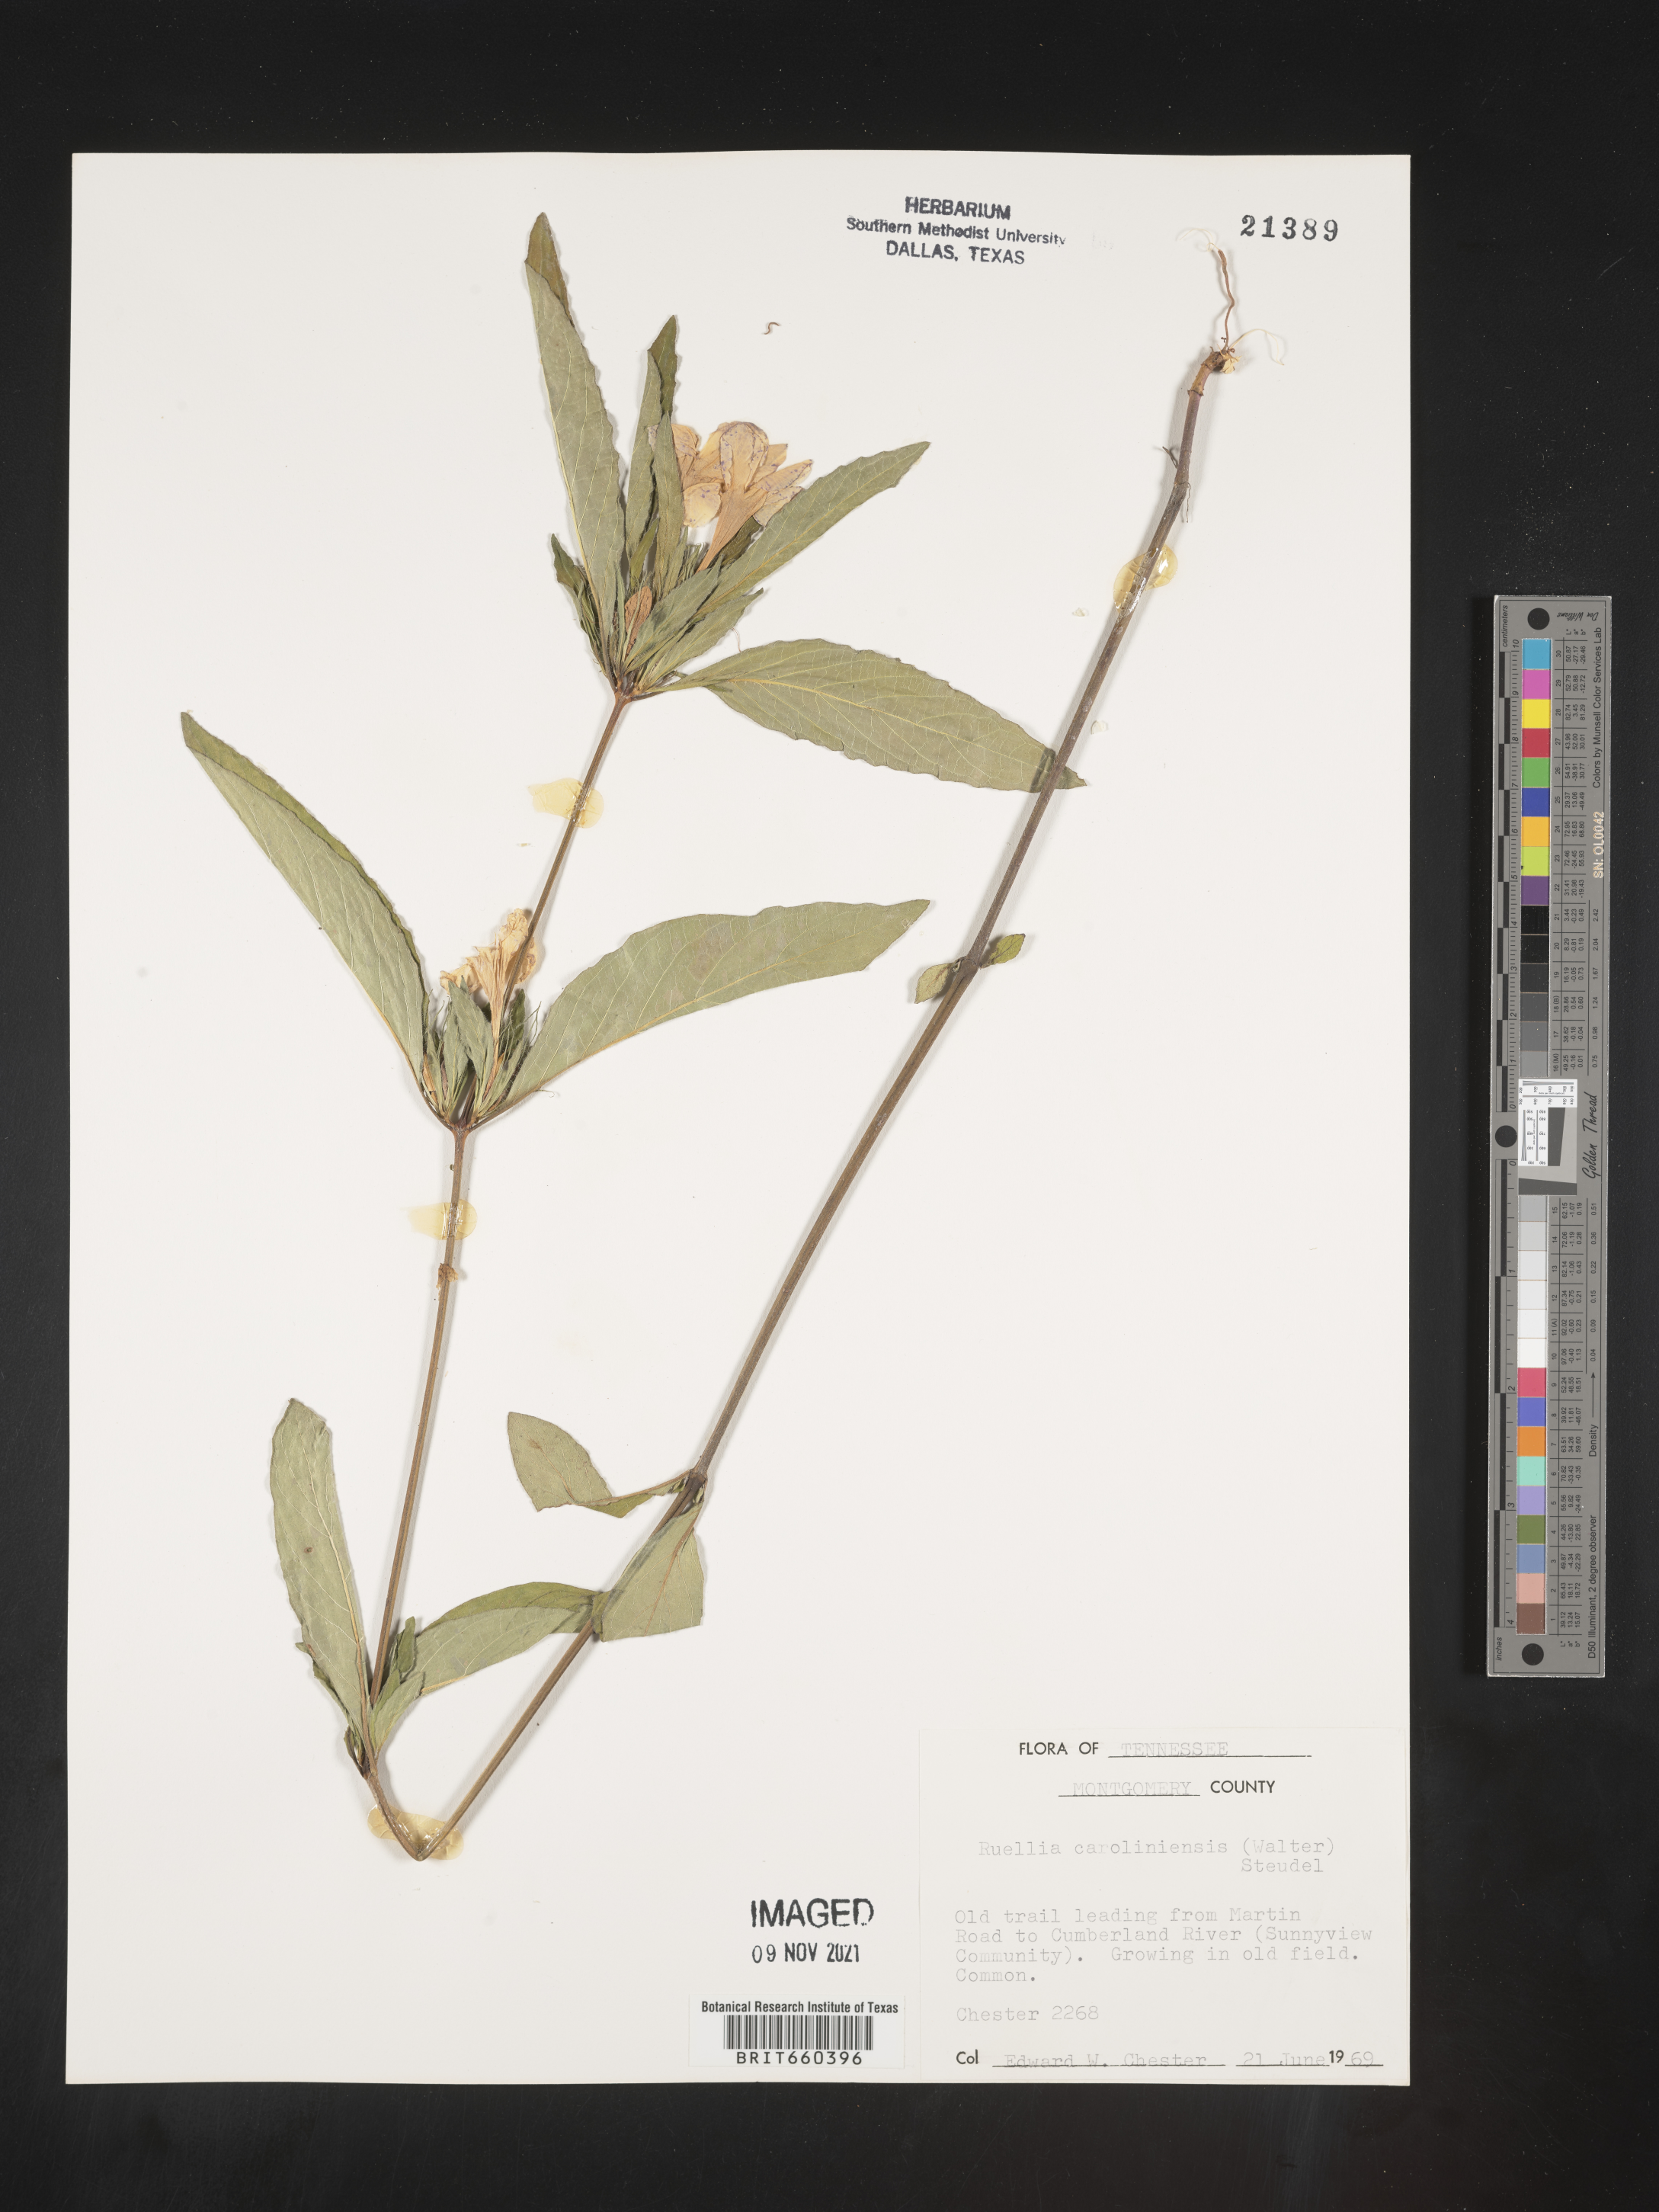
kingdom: Plantae
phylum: Tracheophyta
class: Magnoliopsida
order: Lamiales
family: Acanthaceae
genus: Ruellia
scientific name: Ruellia caroliniensis
